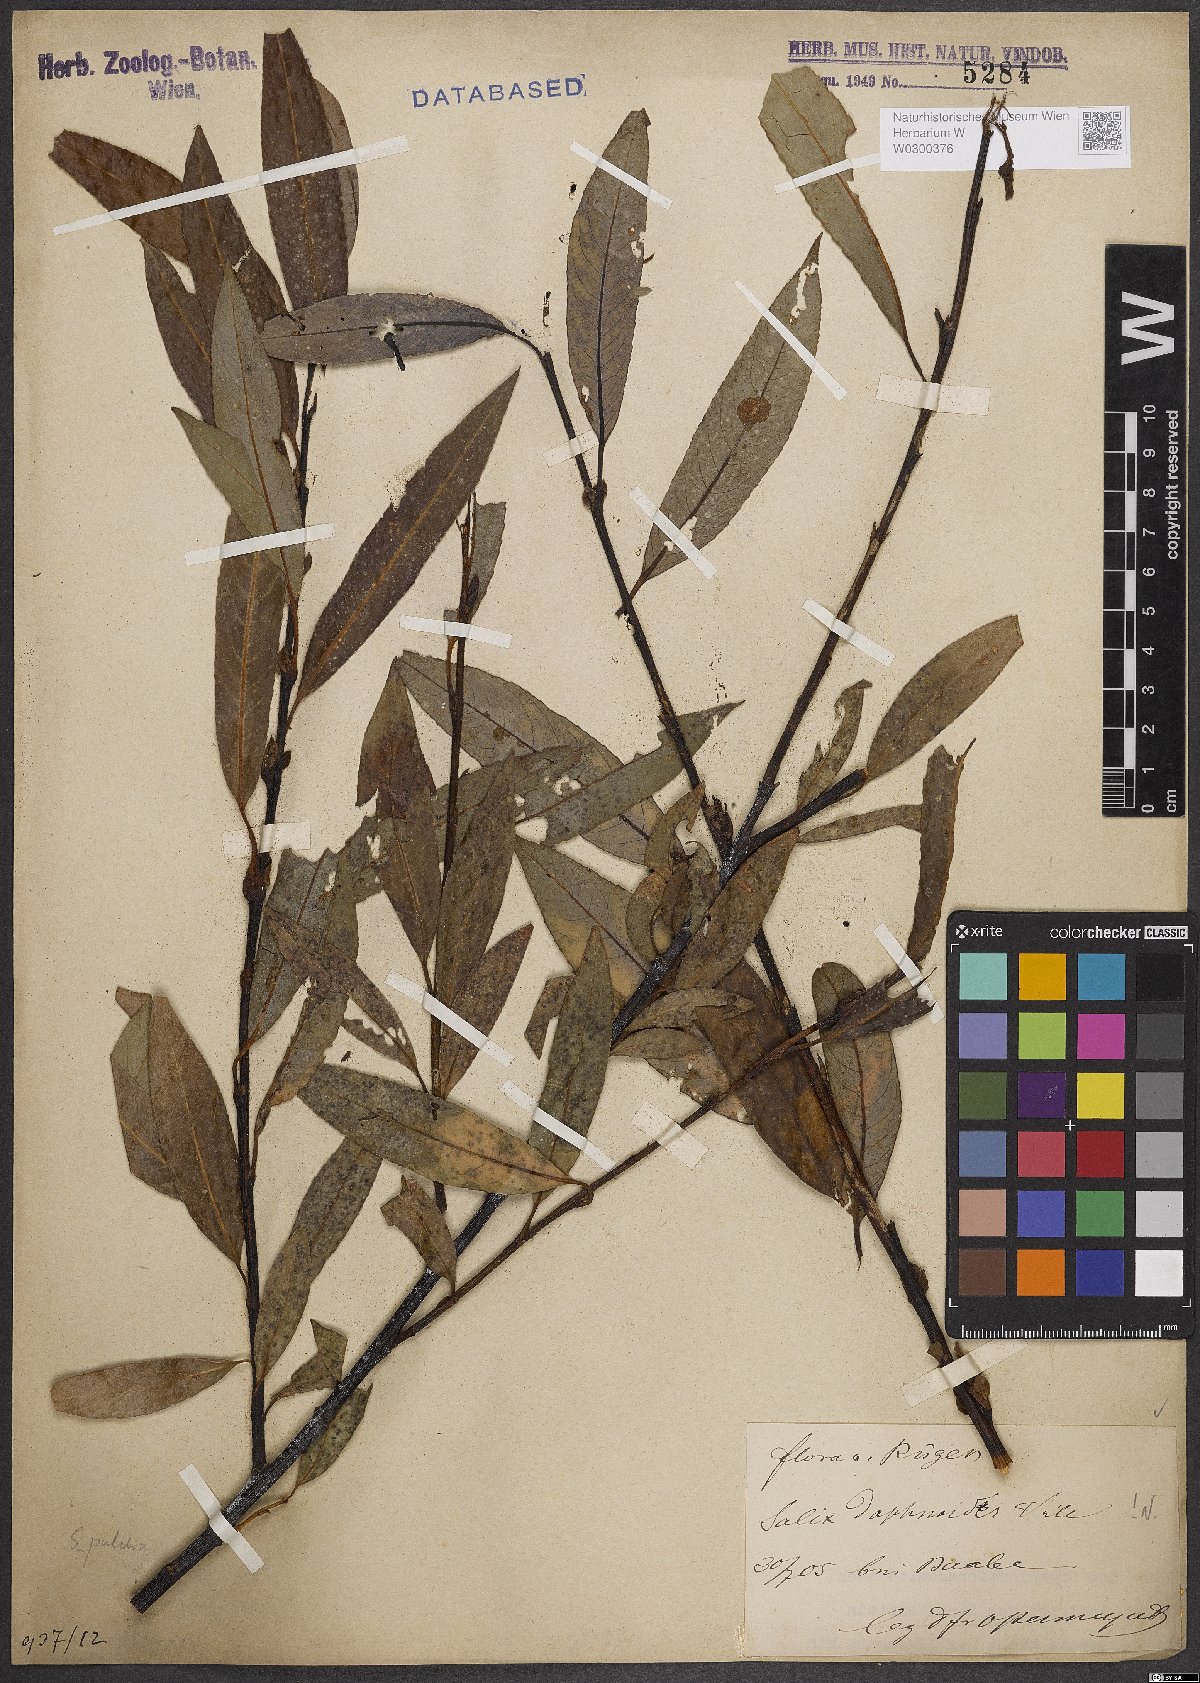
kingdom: Plantae
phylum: Tracheophyta
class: Magnoliopsida
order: Malpighiales
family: Salicaceae
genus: Salix
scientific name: Salix daphnoides
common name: European violet-willow
